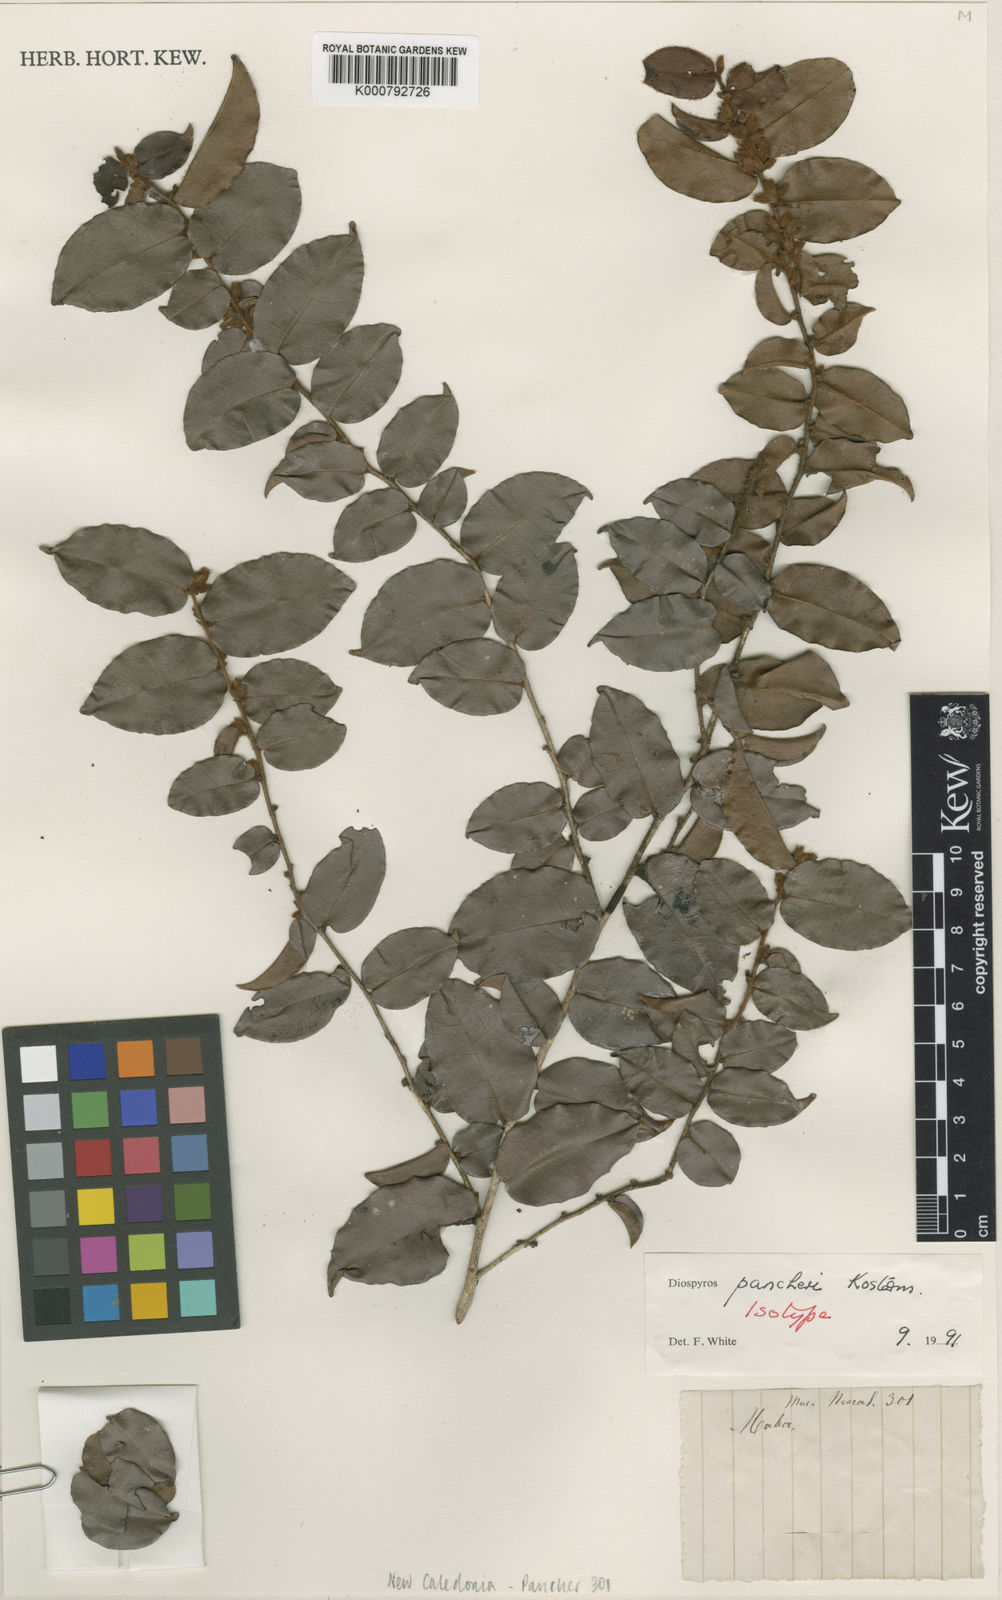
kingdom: Plantae
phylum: Tracheophyta
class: Magnoliopsida
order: Ericales
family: Ebenaceae
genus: Diospyros
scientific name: Diospyros pancheri
